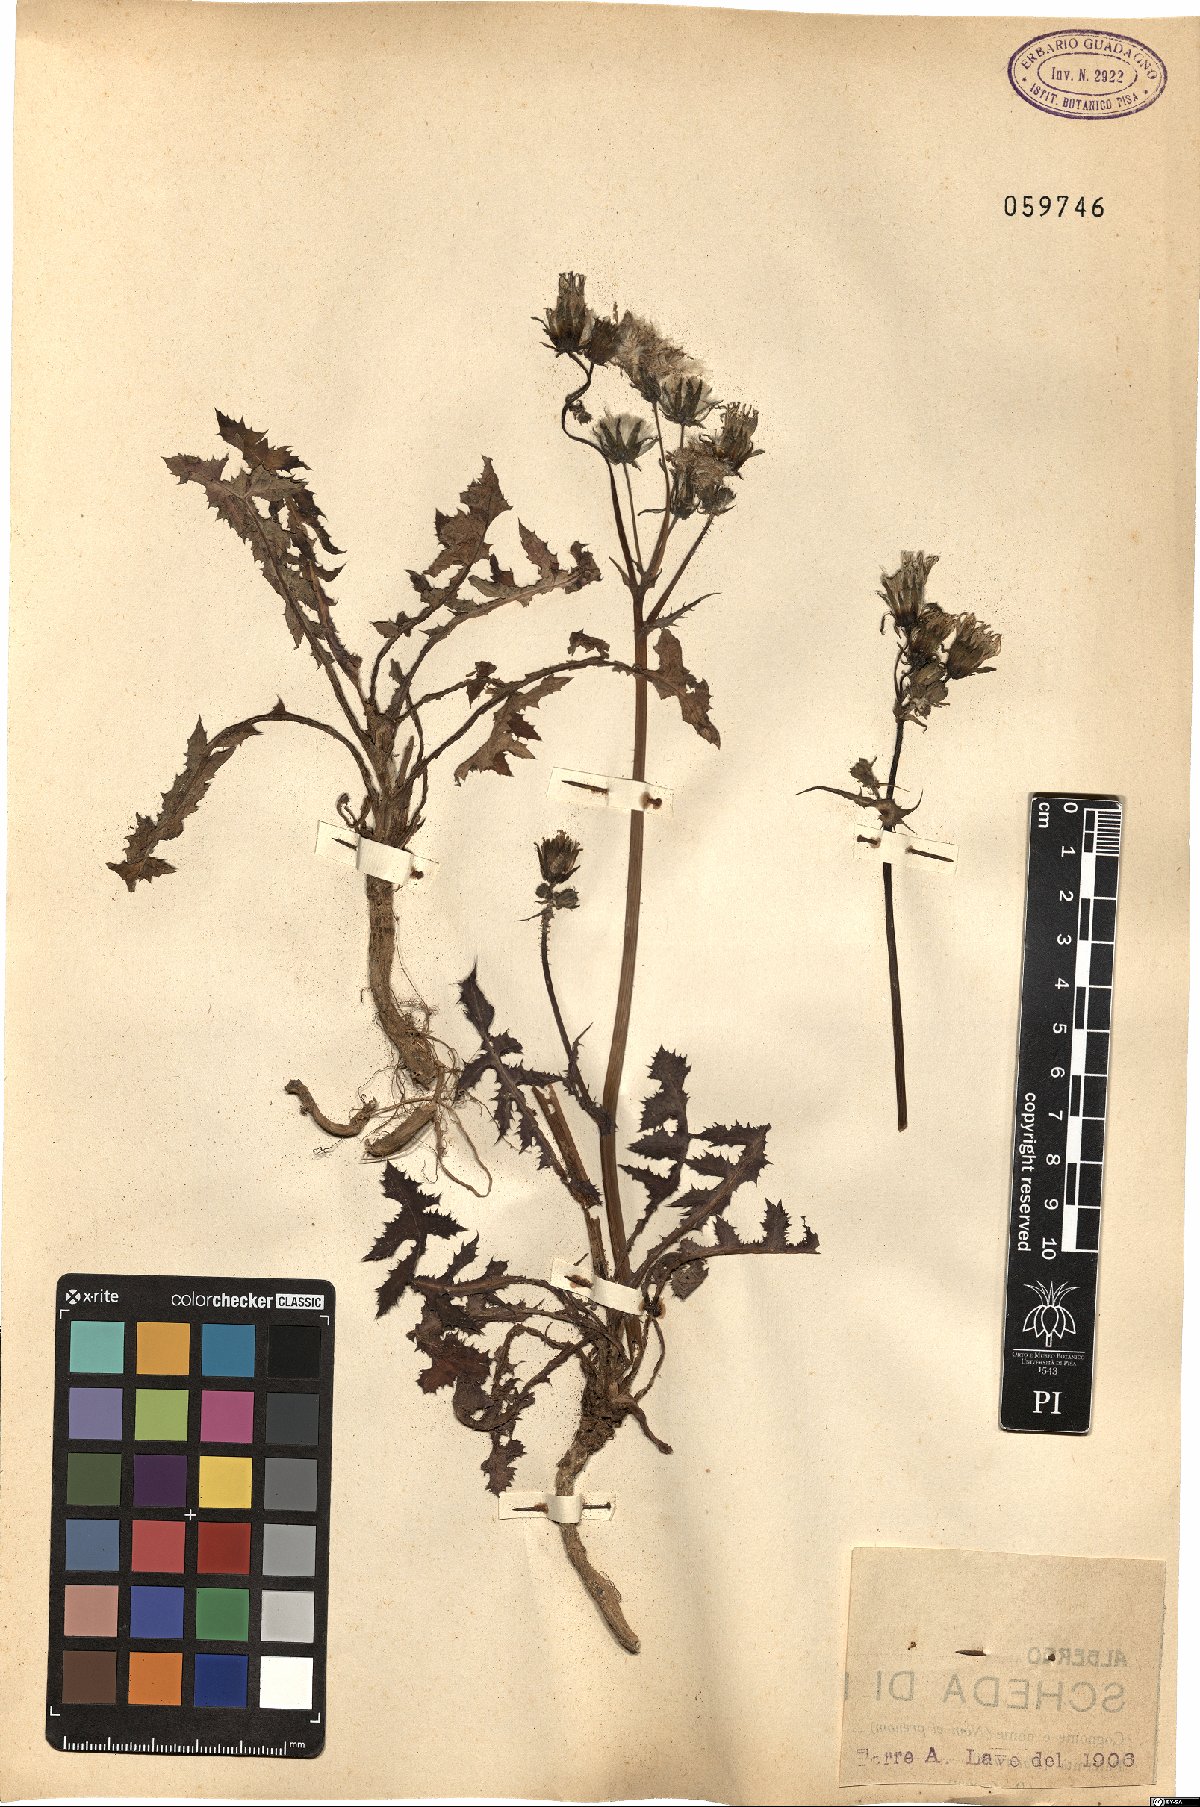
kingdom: Plantae
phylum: Tracheophyta
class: Magnoliopsida
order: Asterales
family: Asteraceae
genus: Sonchus
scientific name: Sonchus asper
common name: Prickly sow-thistle
